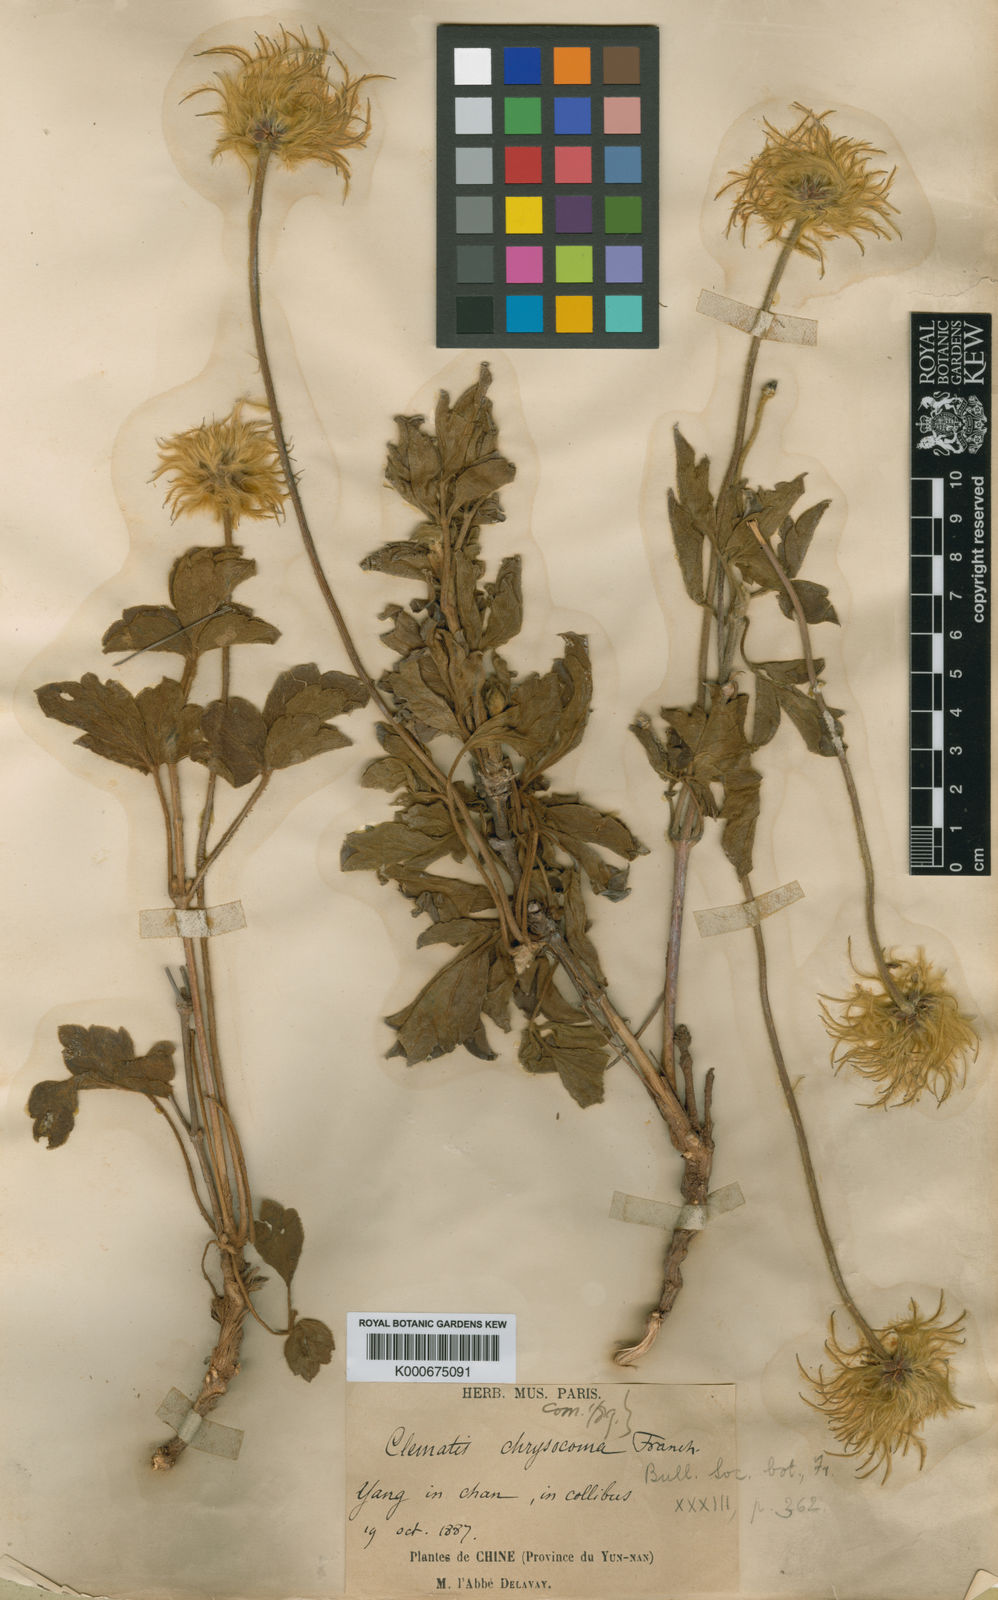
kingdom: Plantae
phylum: Tracheophyta
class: Magnoliopsida
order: Ranunculales
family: Ranunculaceae
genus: Clematis
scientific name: Clematis chrysocoma
